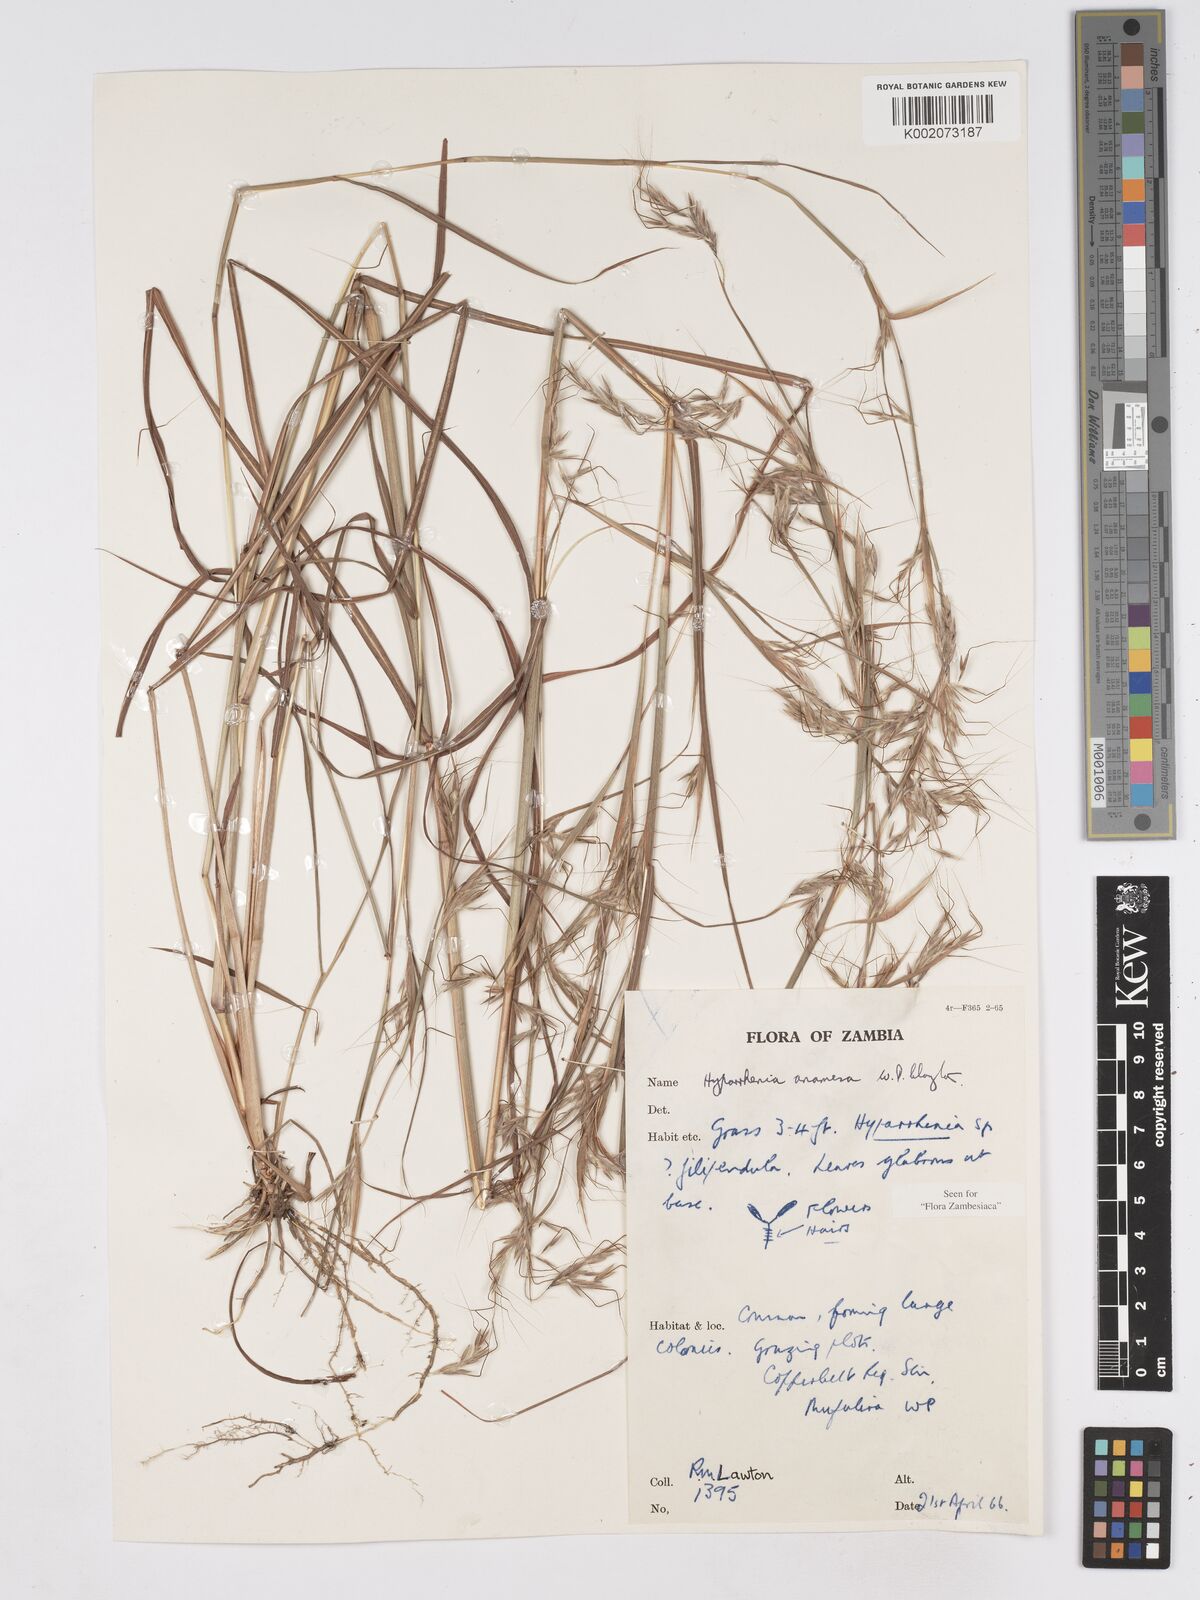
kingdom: Plantae
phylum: Tracheophyta
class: Liliopsida
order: Poales
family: Poaceae
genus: Hyparrhenia
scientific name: Hyparrhenia anamesa
